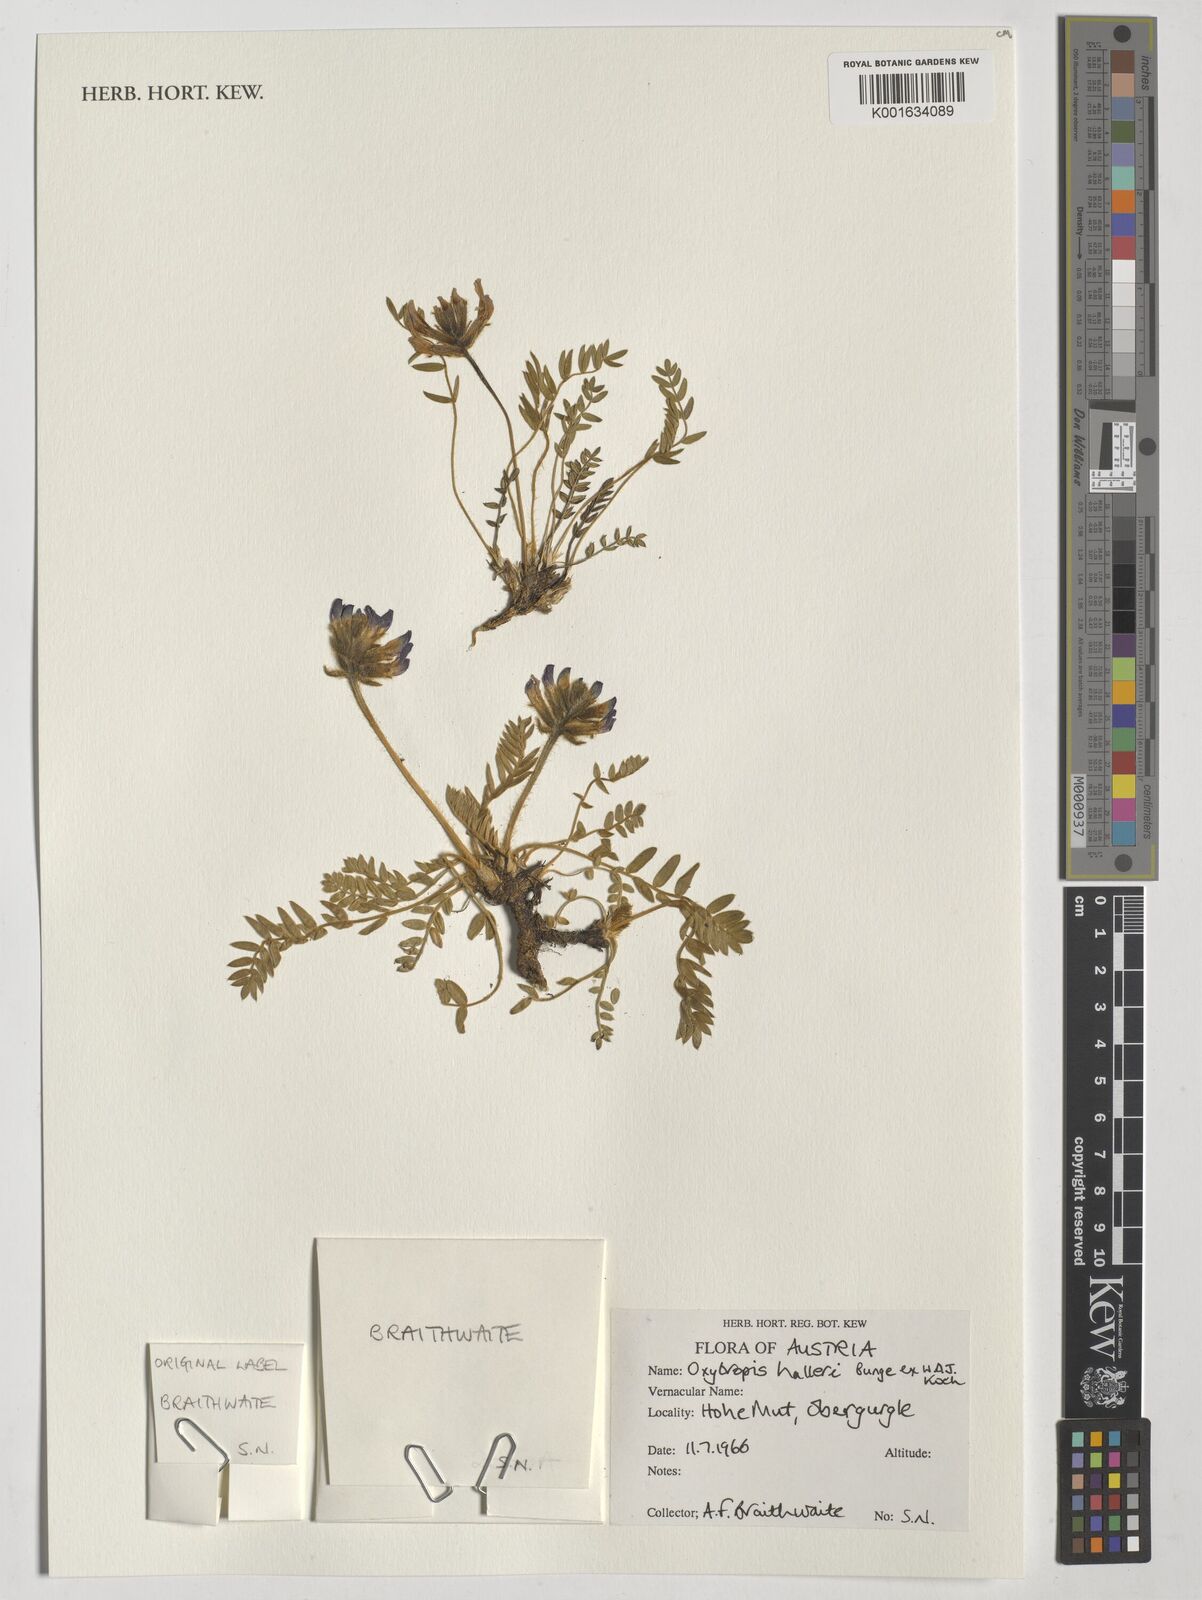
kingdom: Plantae
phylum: Tracheophyta
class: Magnoliopsida
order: Fabales
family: Fabaceae
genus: Oxytropis
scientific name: Oxytropis halleri
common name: Purple oxytropis
